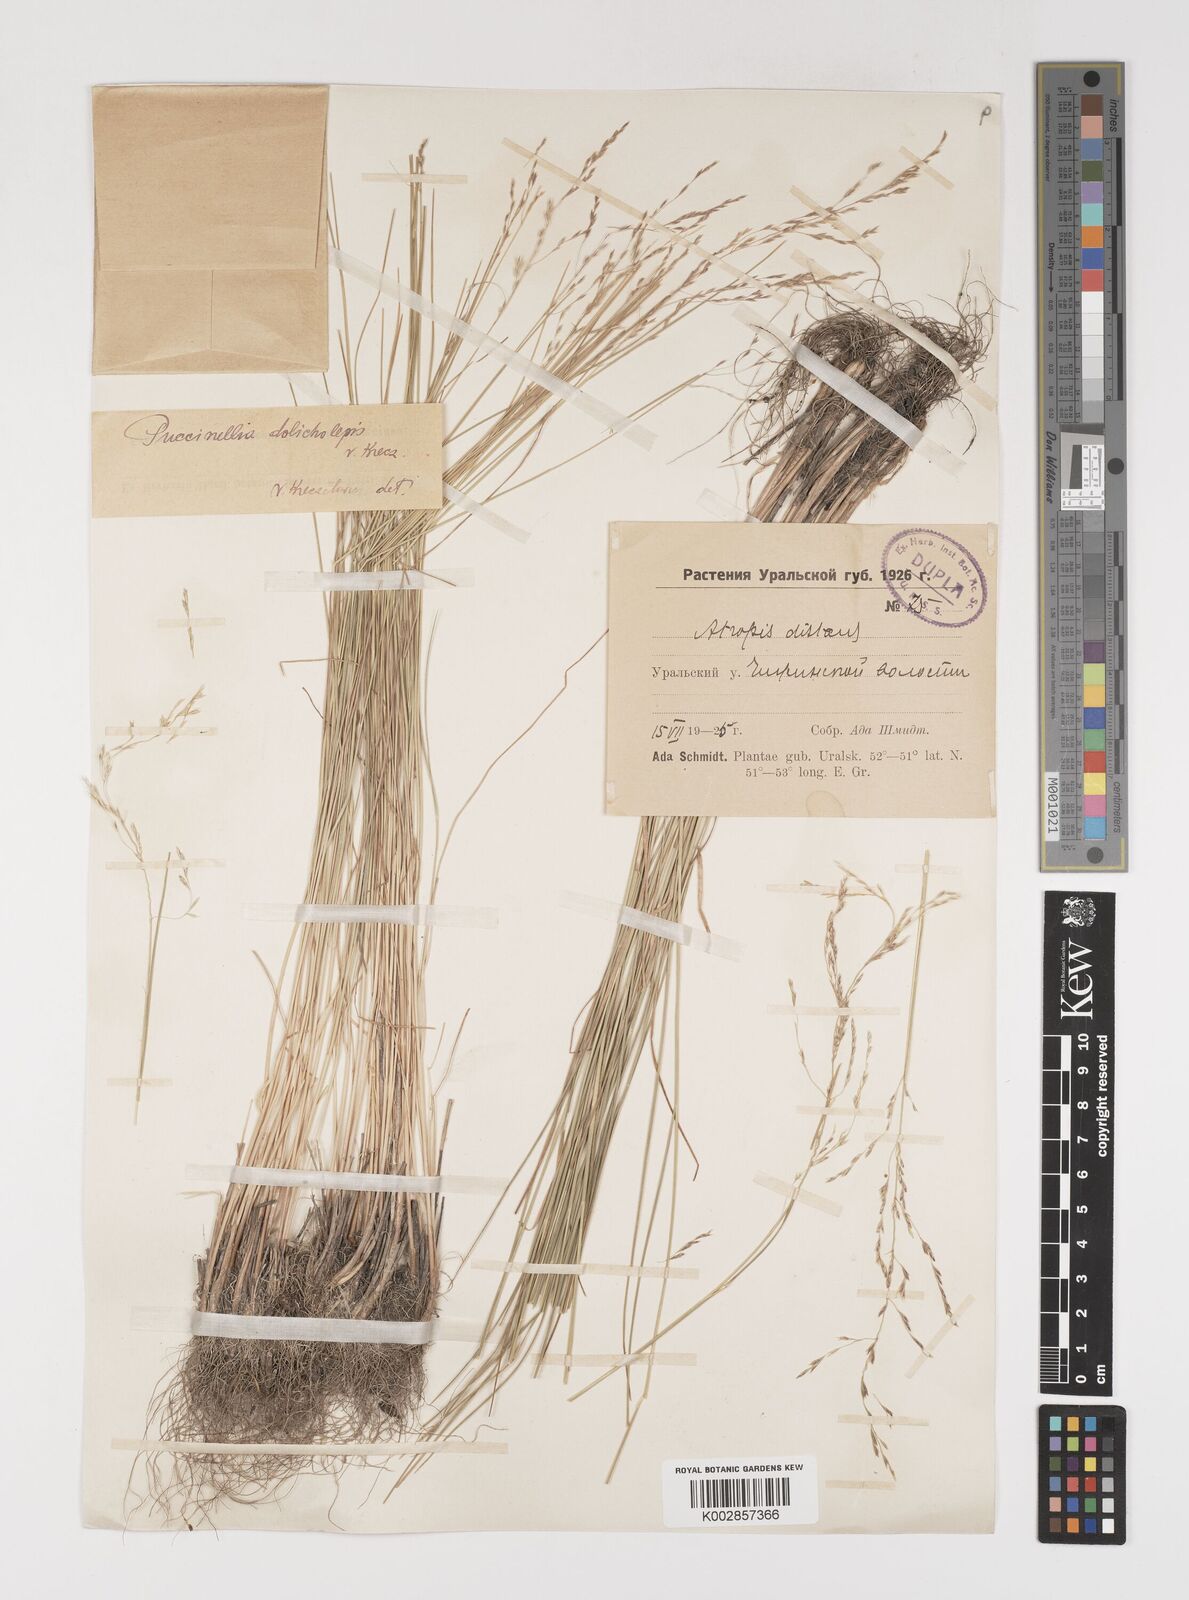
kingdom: Plantae
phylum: Tracheophyta
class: Liliopsida
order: Poales
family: Poaceae
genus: Puccinellia
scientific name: Puccinellia dolicholepis
